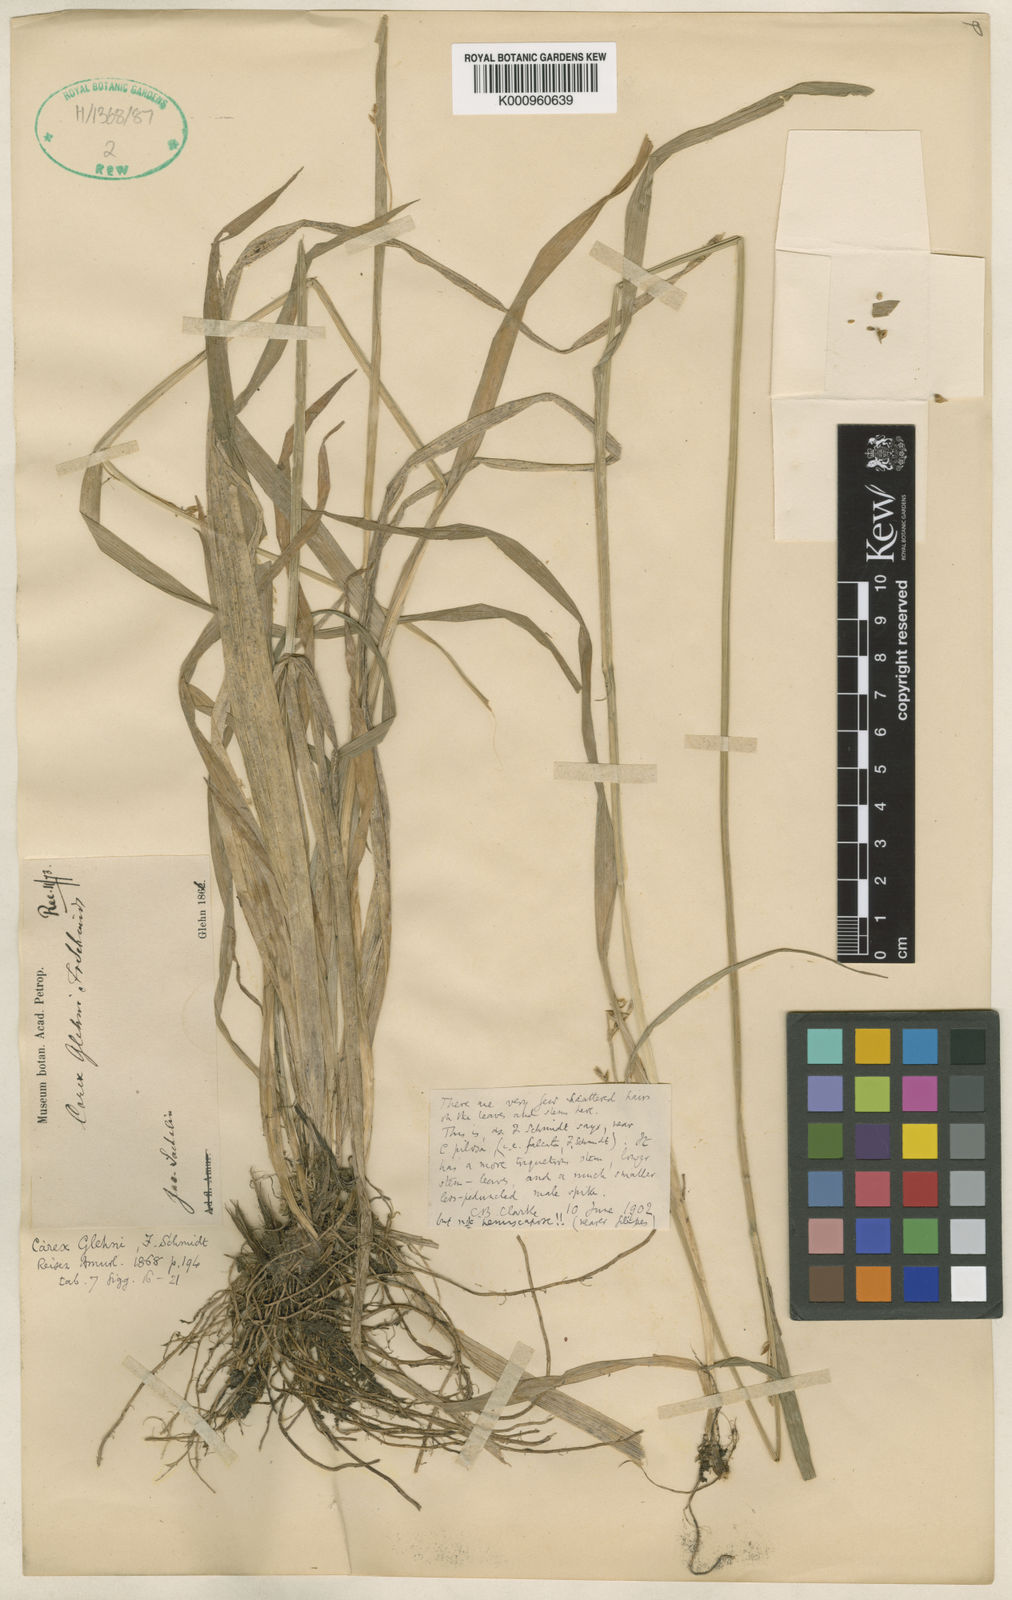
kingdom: Plantae
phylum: Tracheophyta
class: Liliopsida
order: Poales
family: Cyperaceae
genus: Carex
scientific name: Carex jackiana
